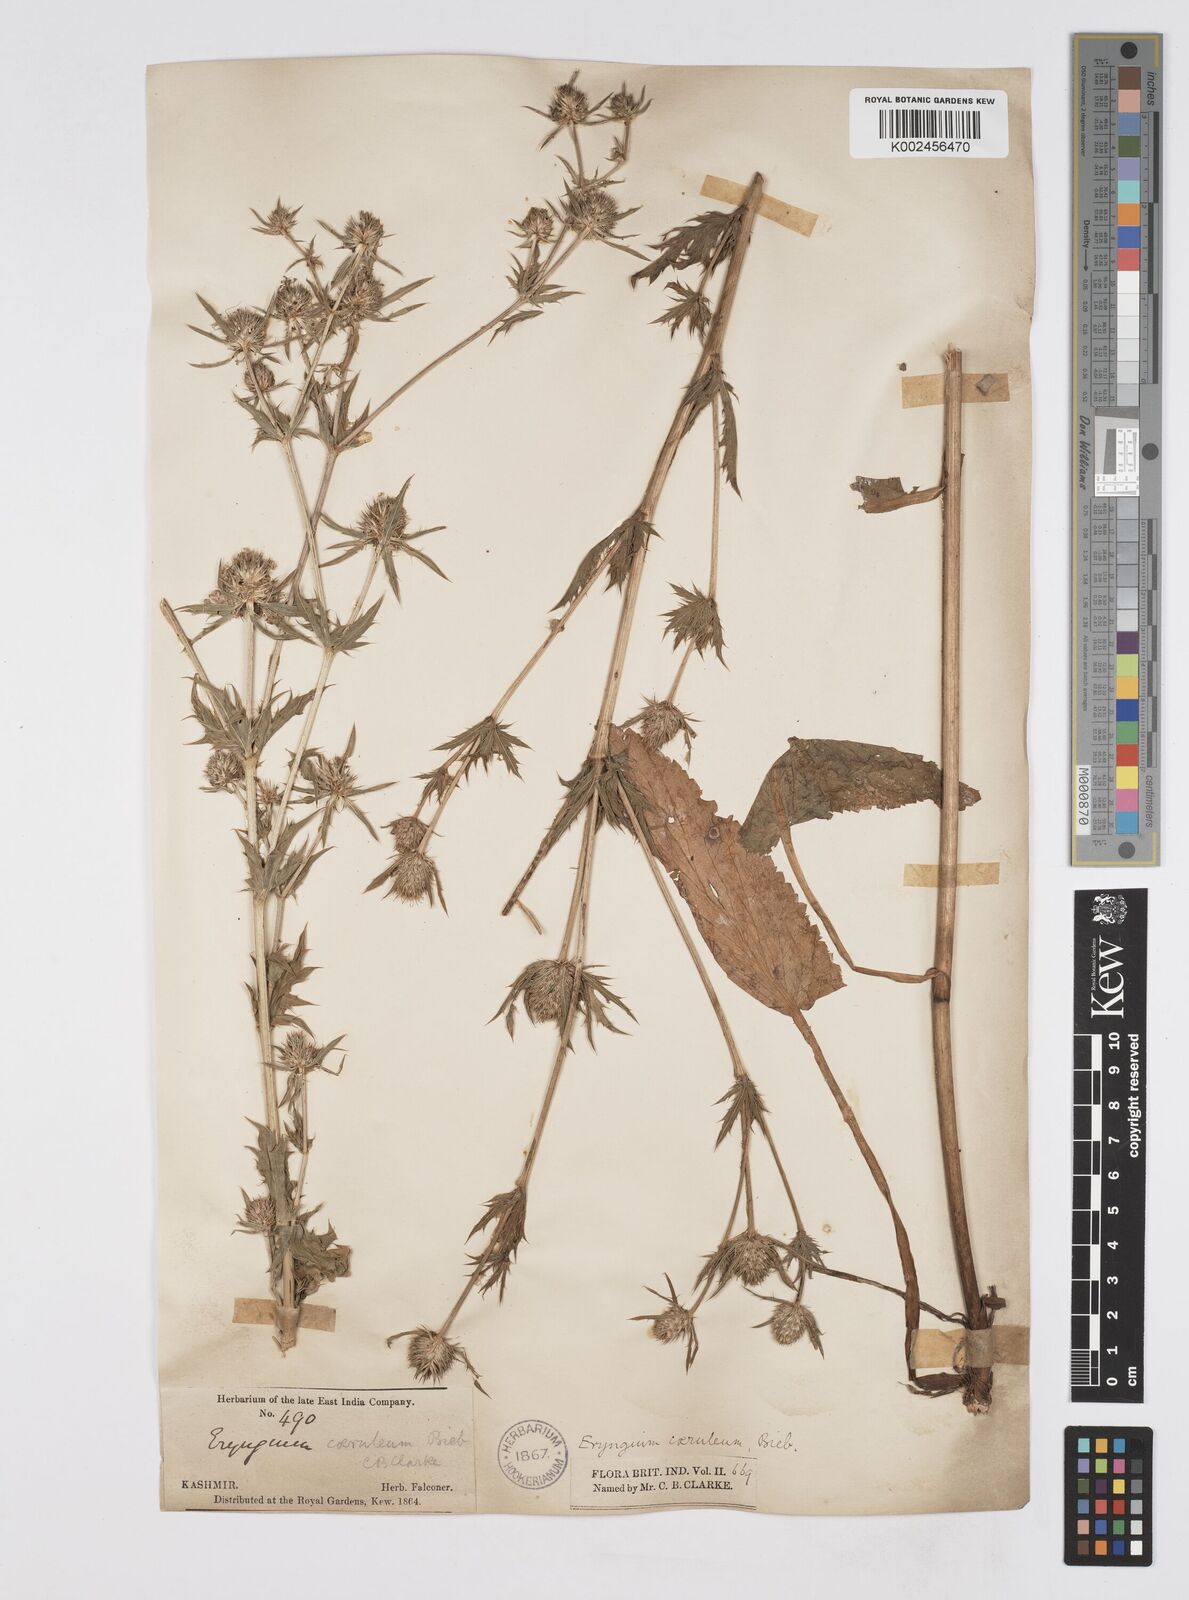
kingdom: Plantae
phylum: Tracheophyta
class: Magnoliopsida
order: Apiales
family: Apiaceae
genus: Eryngium
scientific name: Eryngium caeruleum
